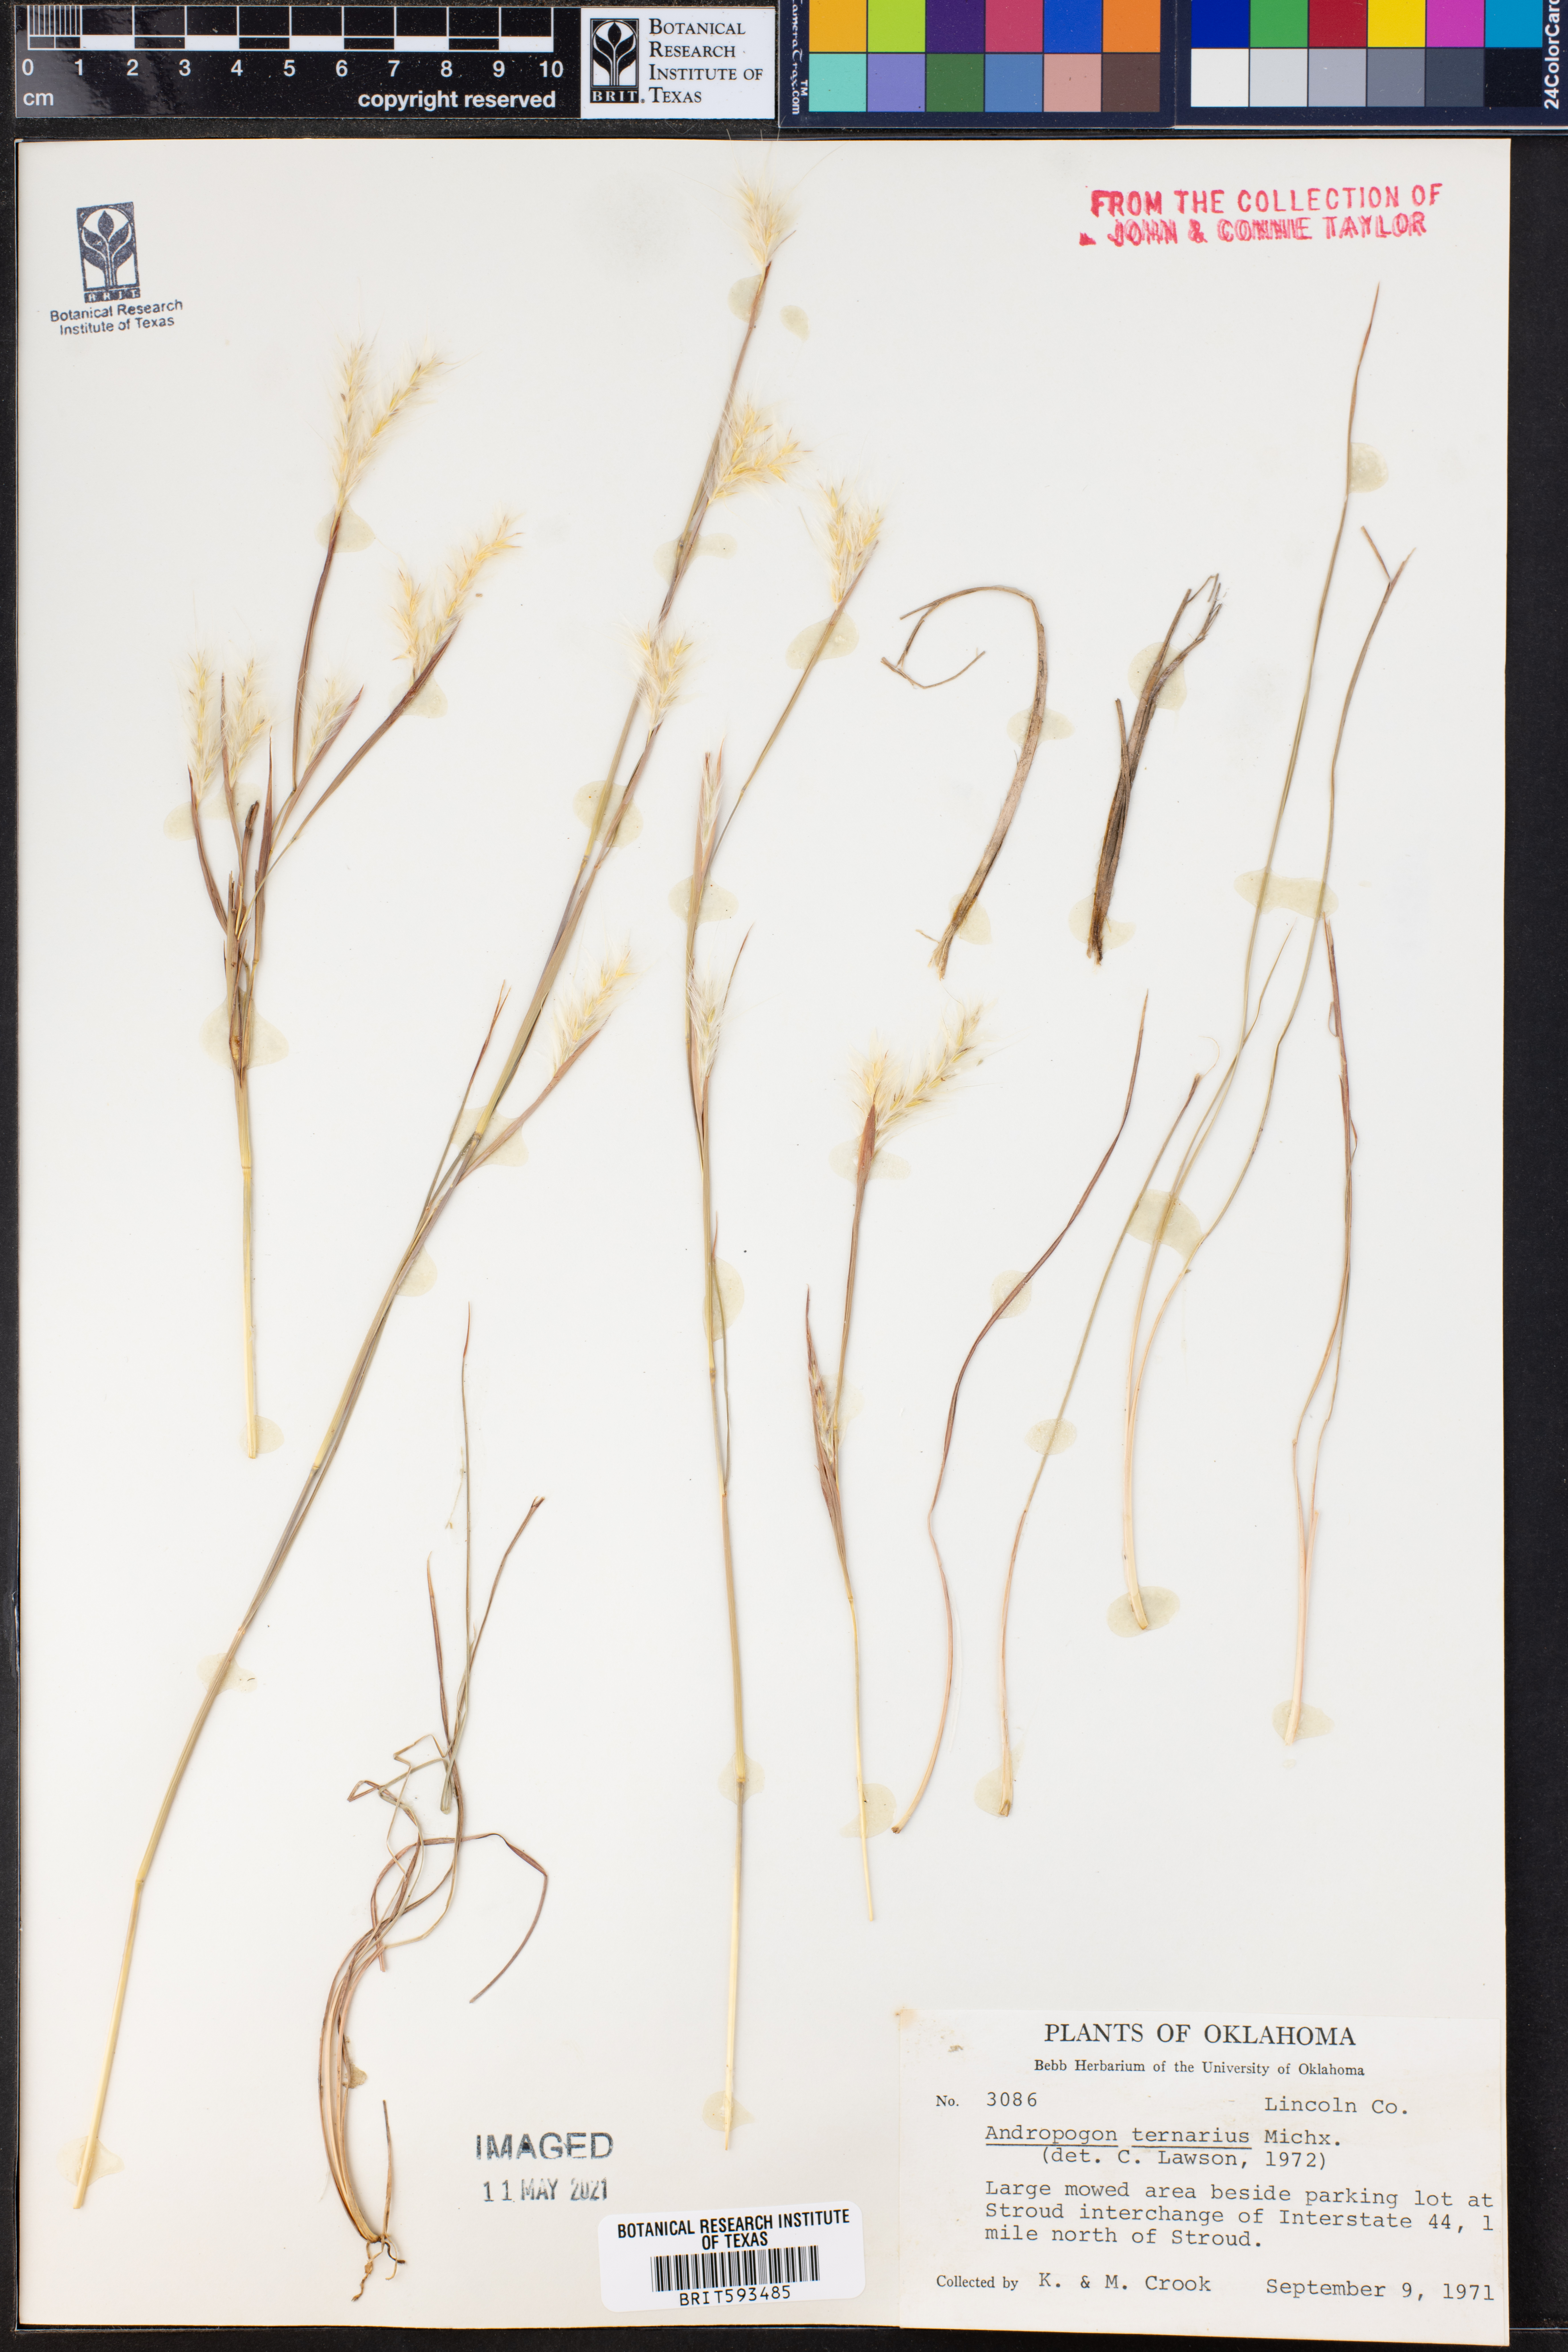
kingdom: Plantae
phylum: Tracheophyta
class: Liliopsida
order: Poales
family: Poaceae
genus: Andropogon
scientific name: Andropogon ternarius
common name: Split bluestem
